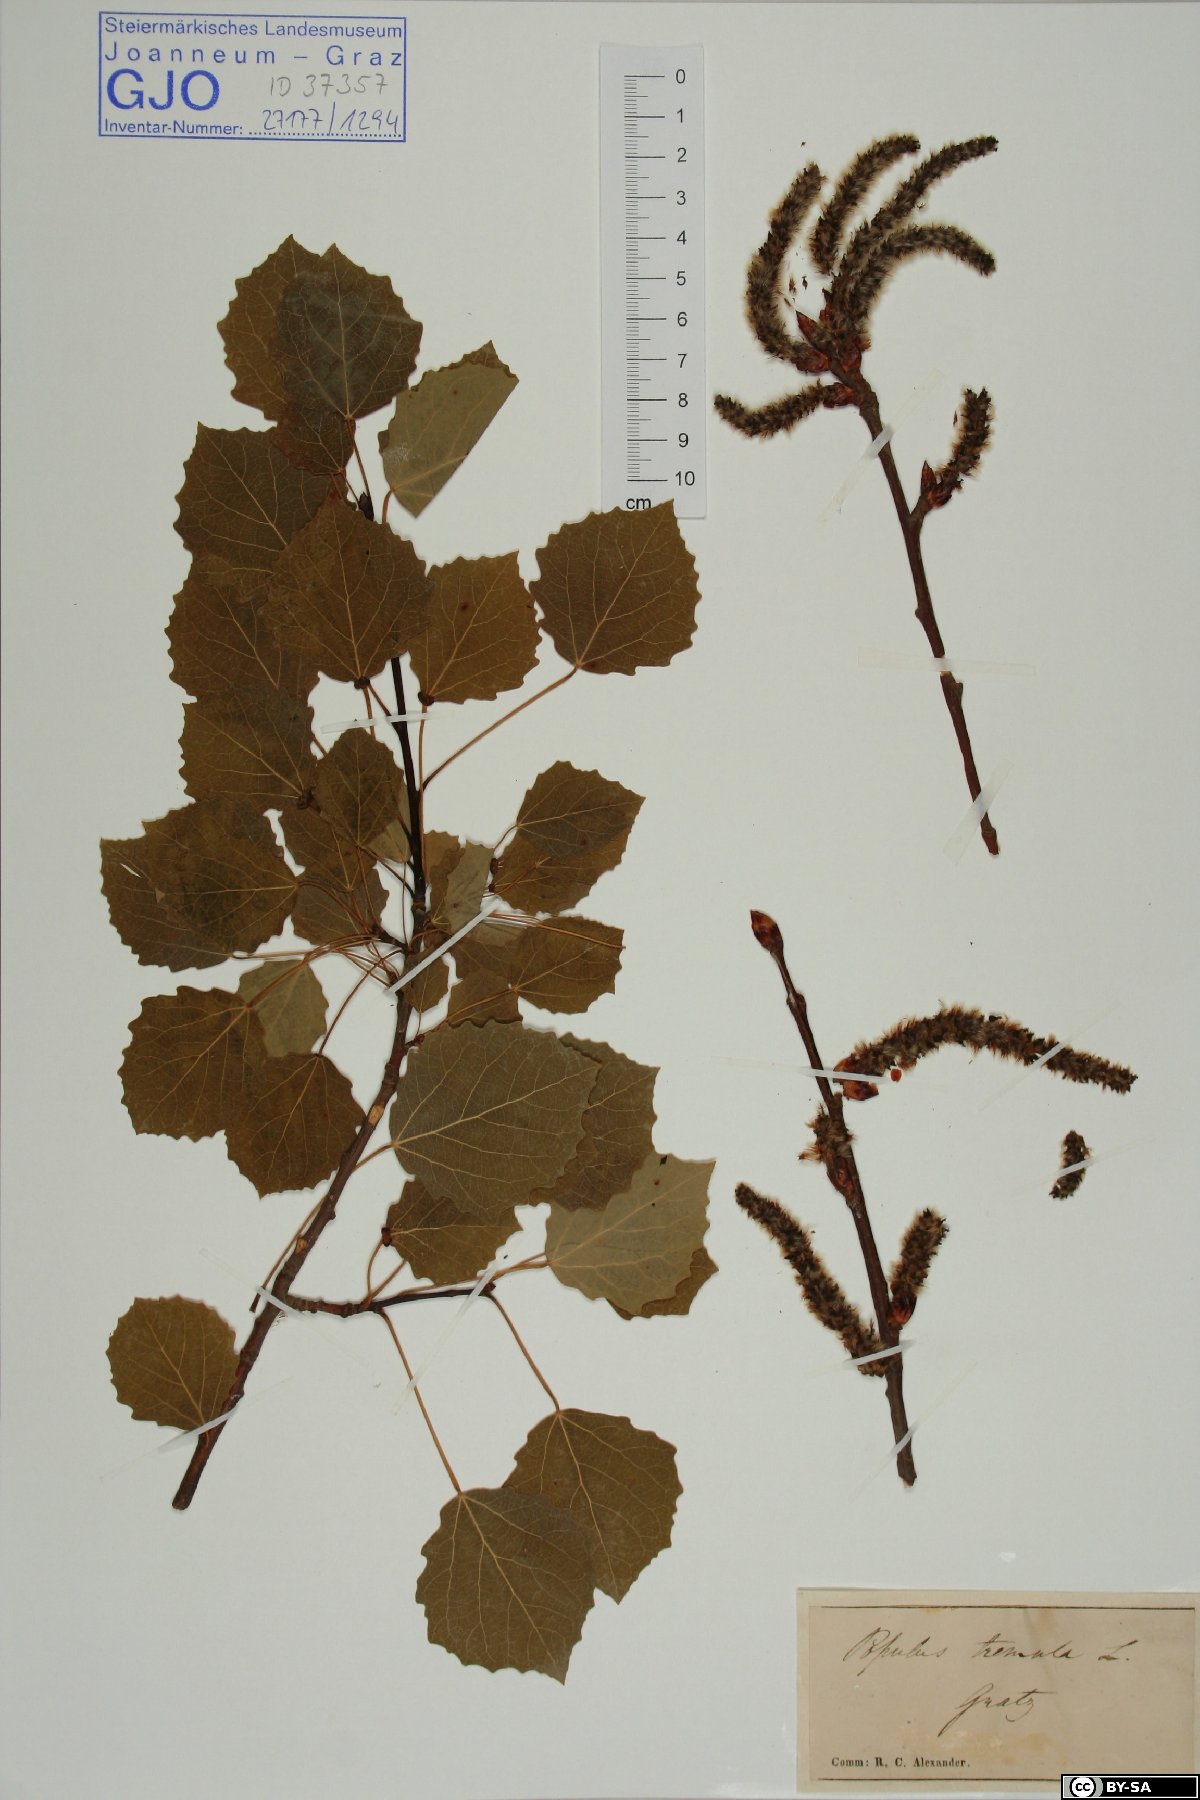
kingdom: Plantae
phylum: Tracheophyta
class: Magnoliopsida
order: Malpighiales
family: Salicaceae
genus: Populus
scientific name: Populus tremula
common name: European aspen
